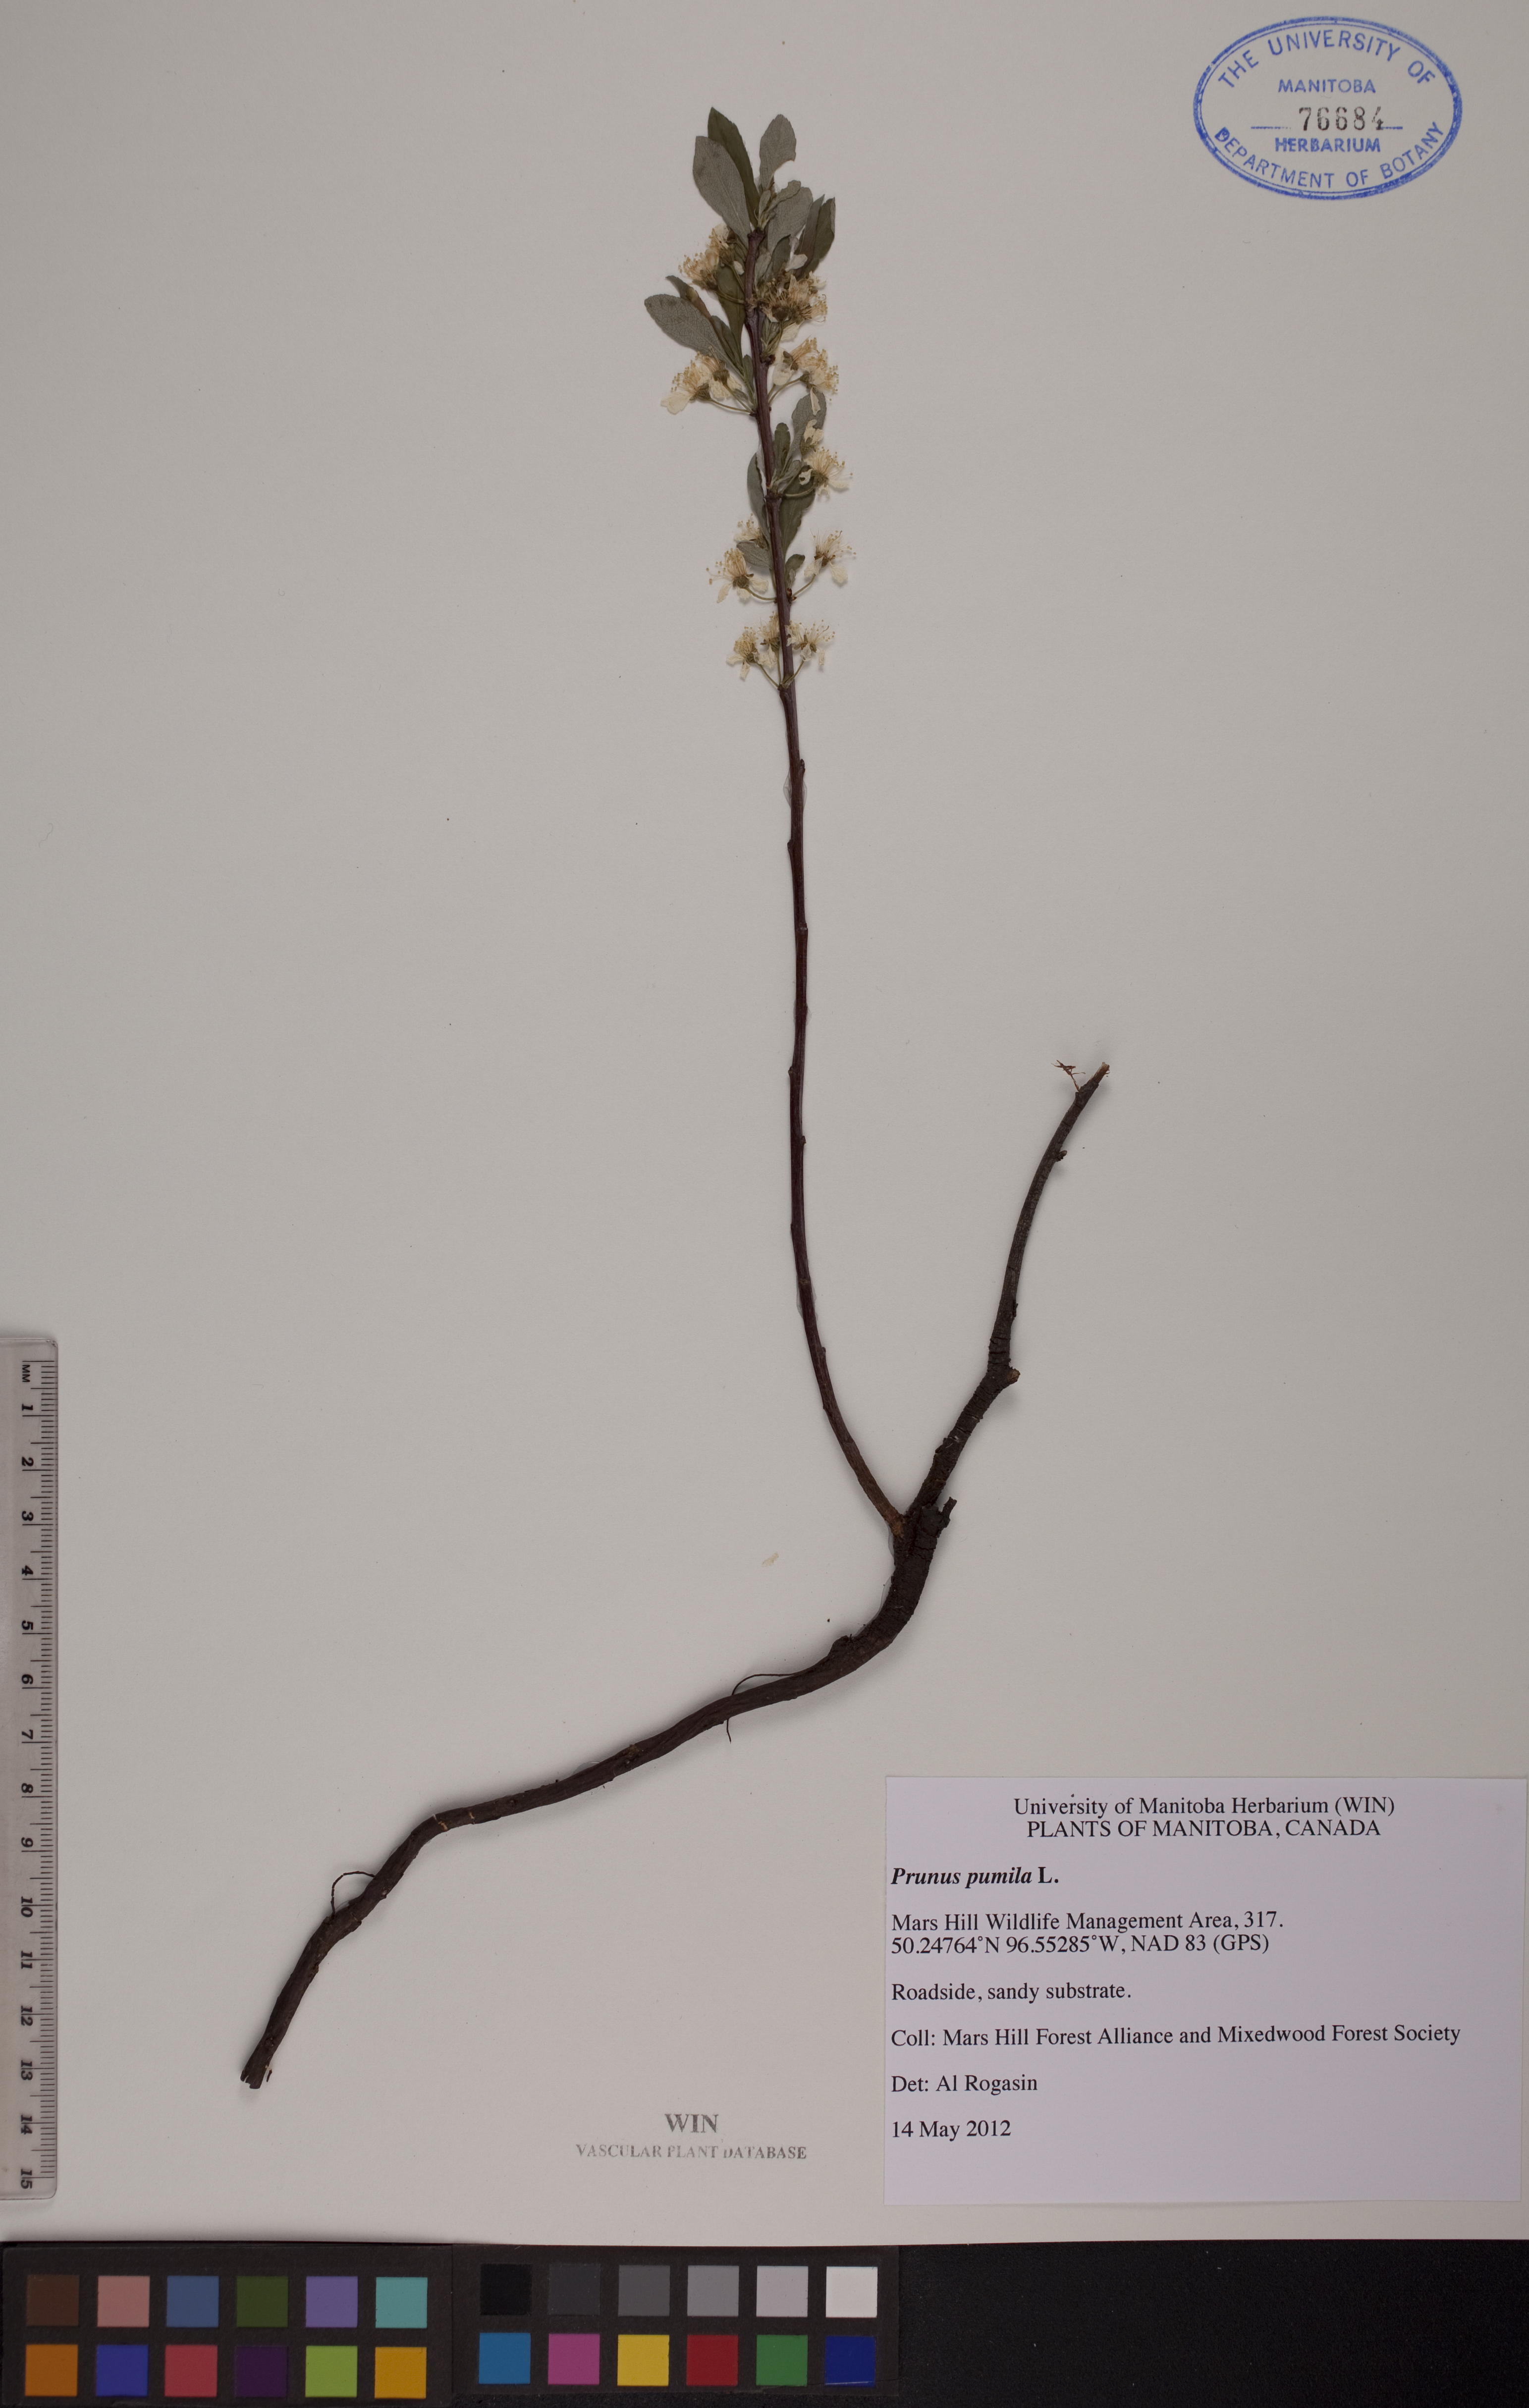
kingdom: Plantae
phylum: Tracheophyta
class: Magnoliopsida
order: Rosales
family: Rosaceae
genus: Prunus
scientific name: Prunus pumila
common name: Dwarf cherry
